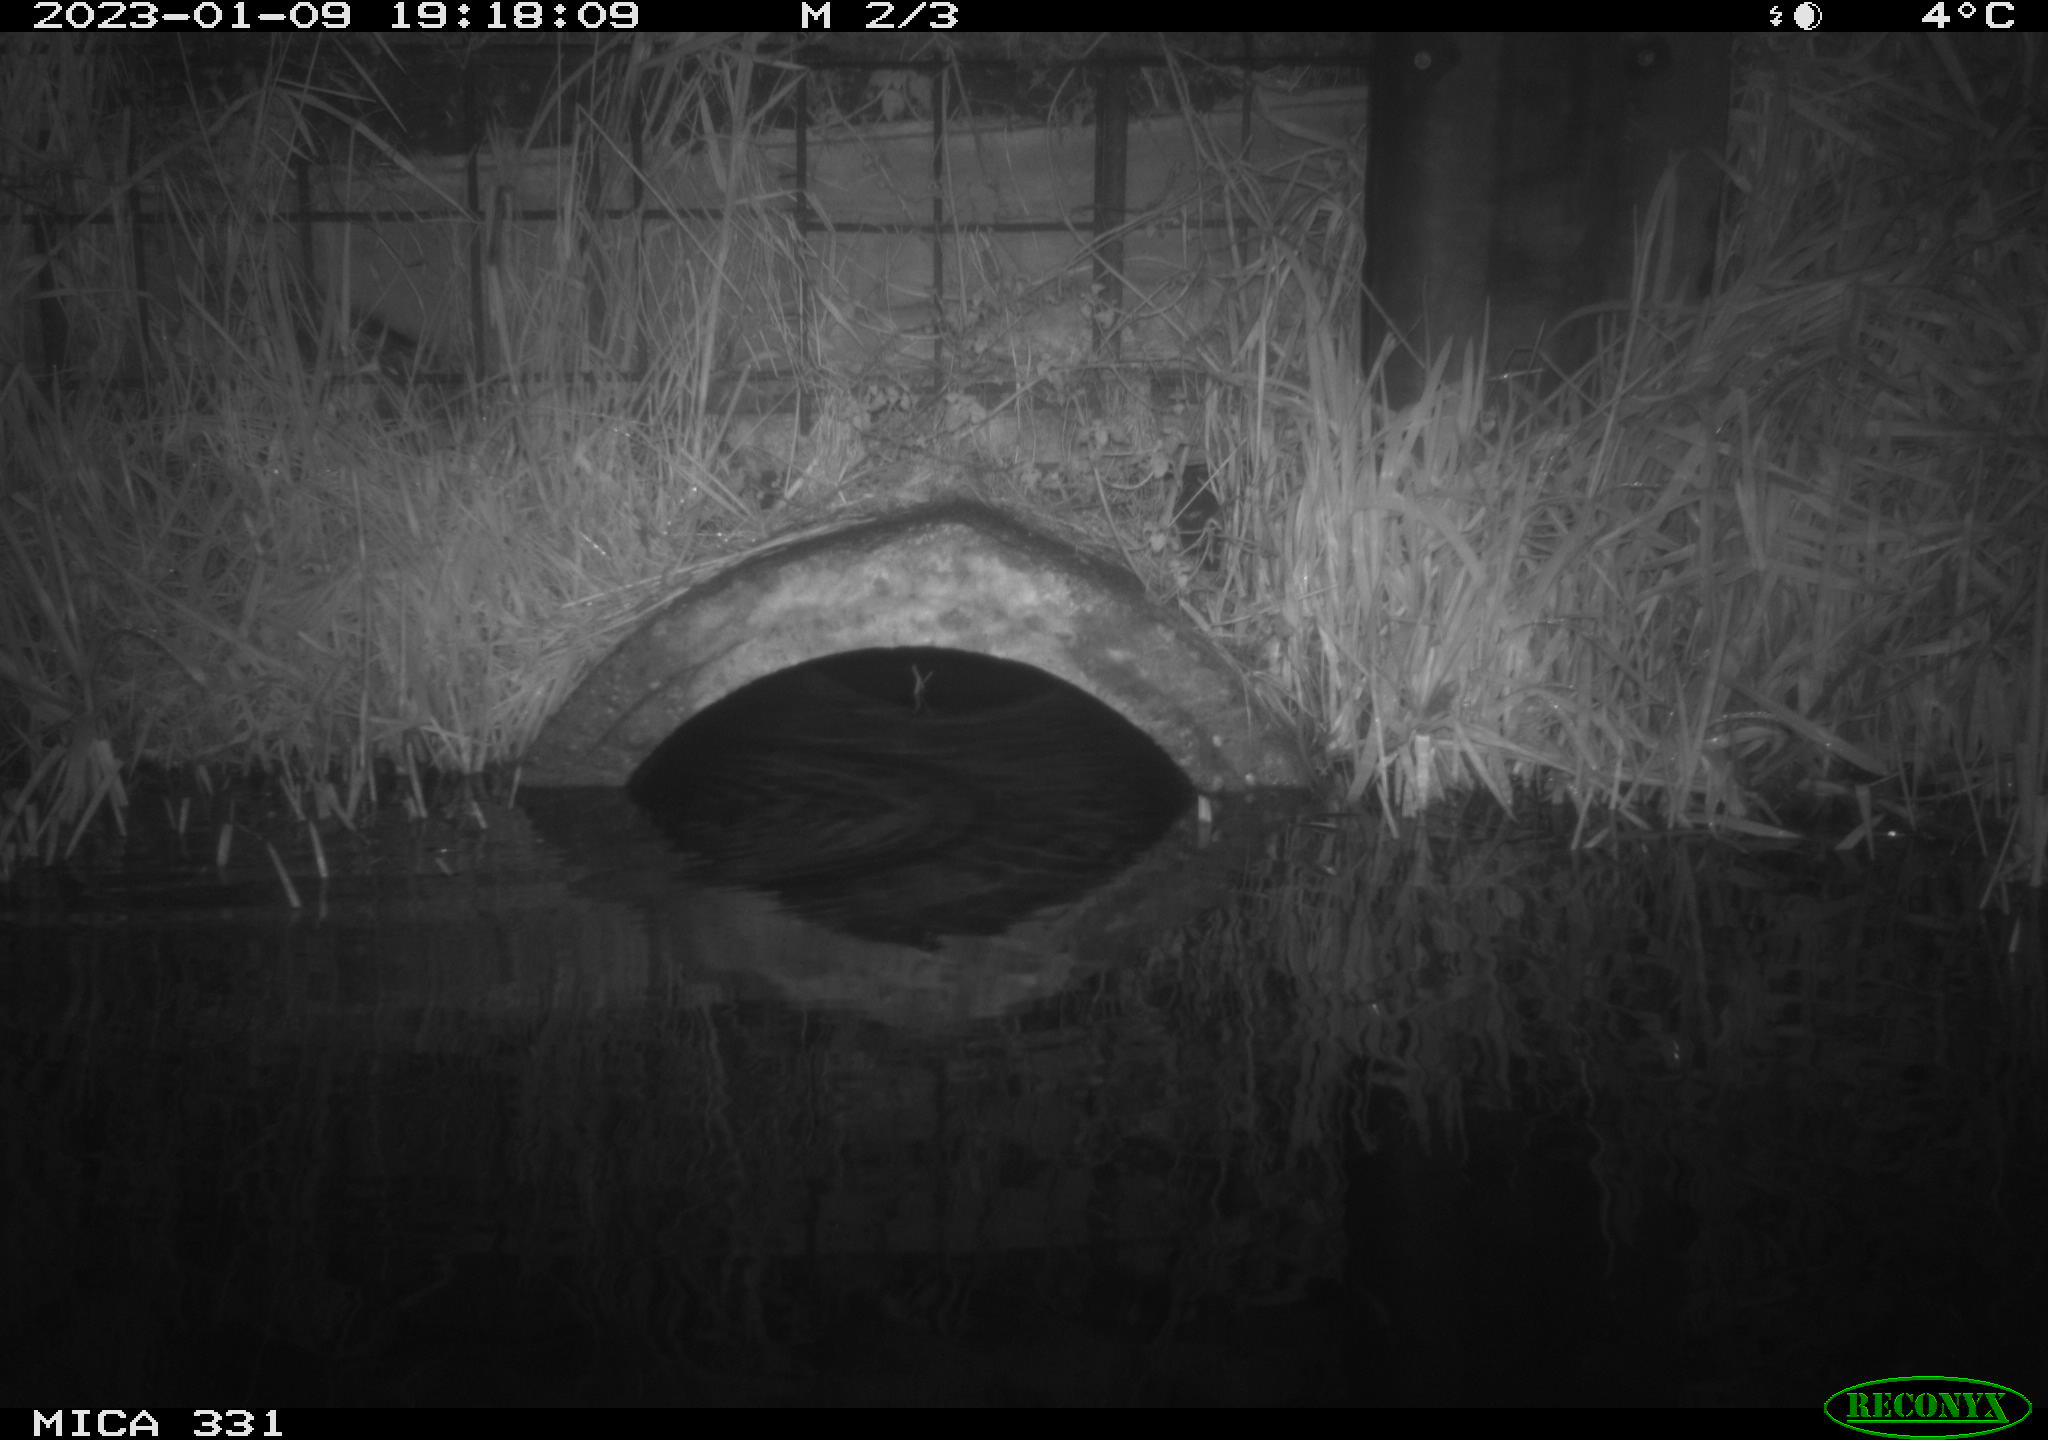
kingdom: Animalia
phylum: Chordata
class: Mammalia
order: Rodentia
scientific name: Rodentia
